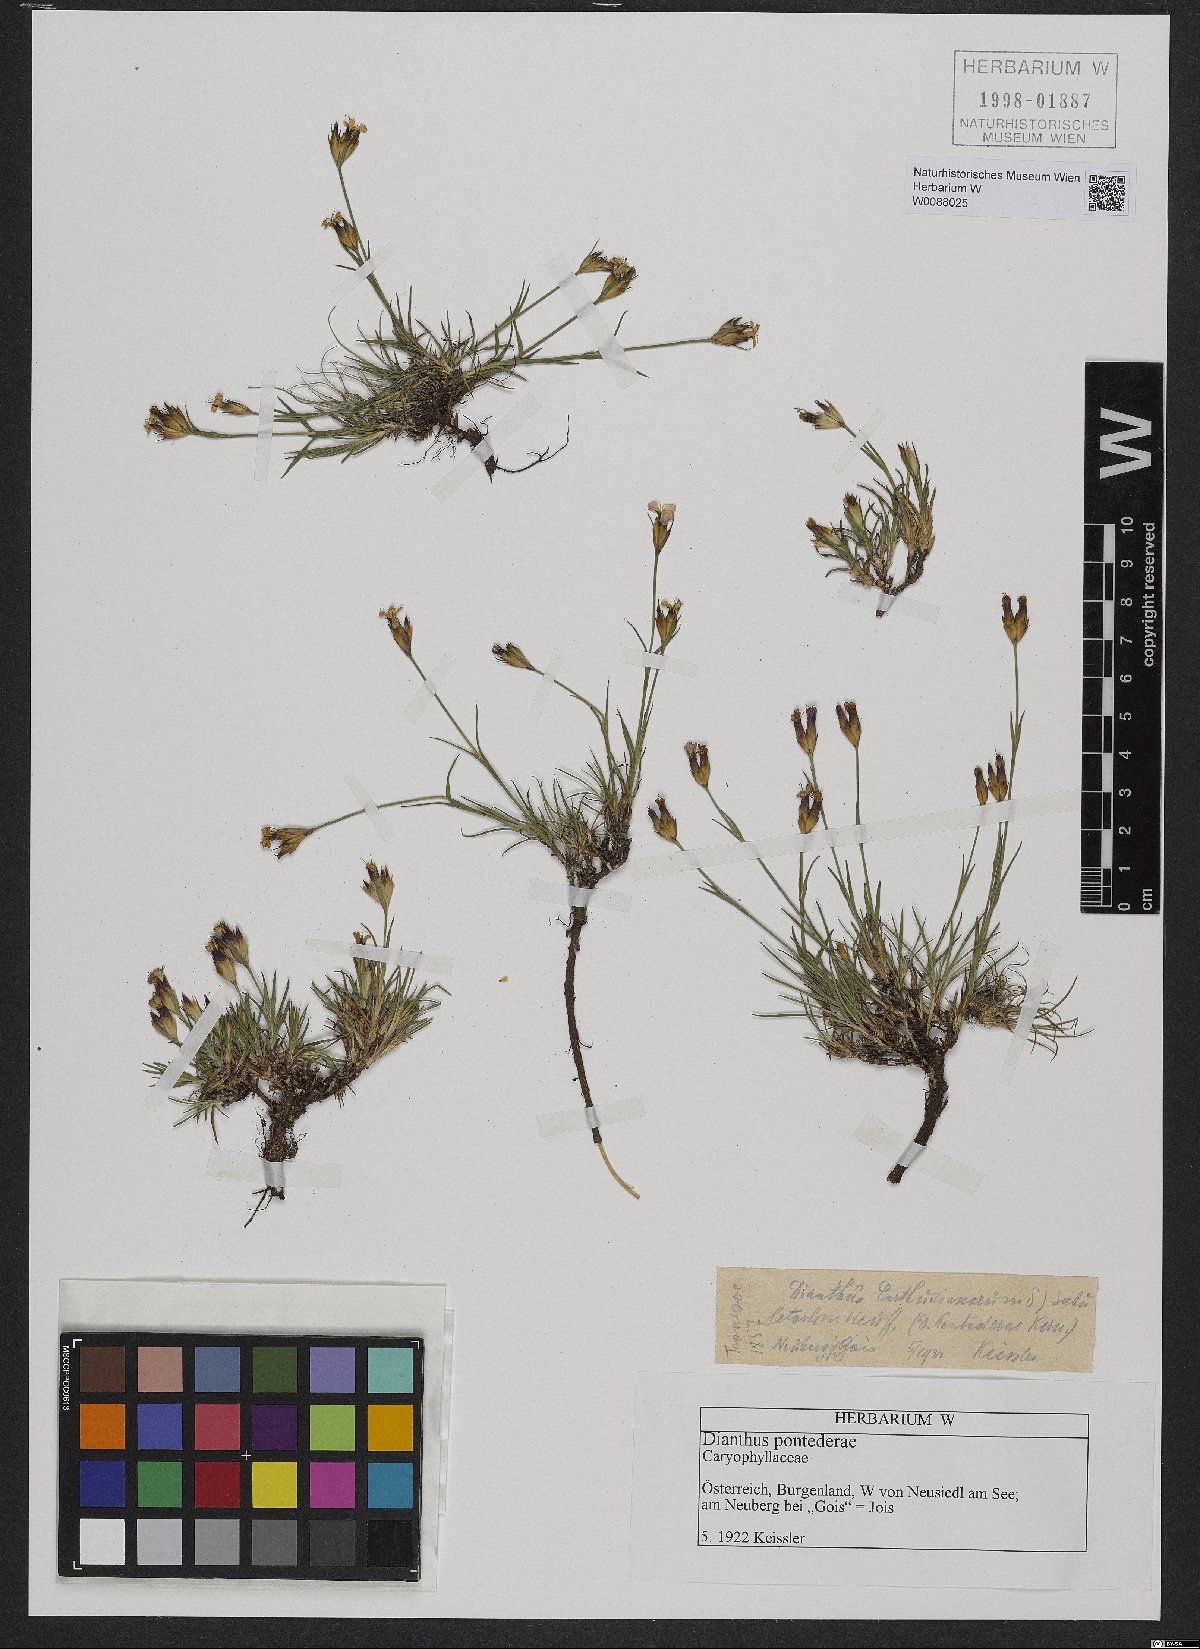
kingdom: Plantae
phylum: Tracheophyta
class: Magnoliopsida
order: Caryophyllales
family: Caryophyllaceae
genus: Dianthus
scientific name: Dianthus pontederae
